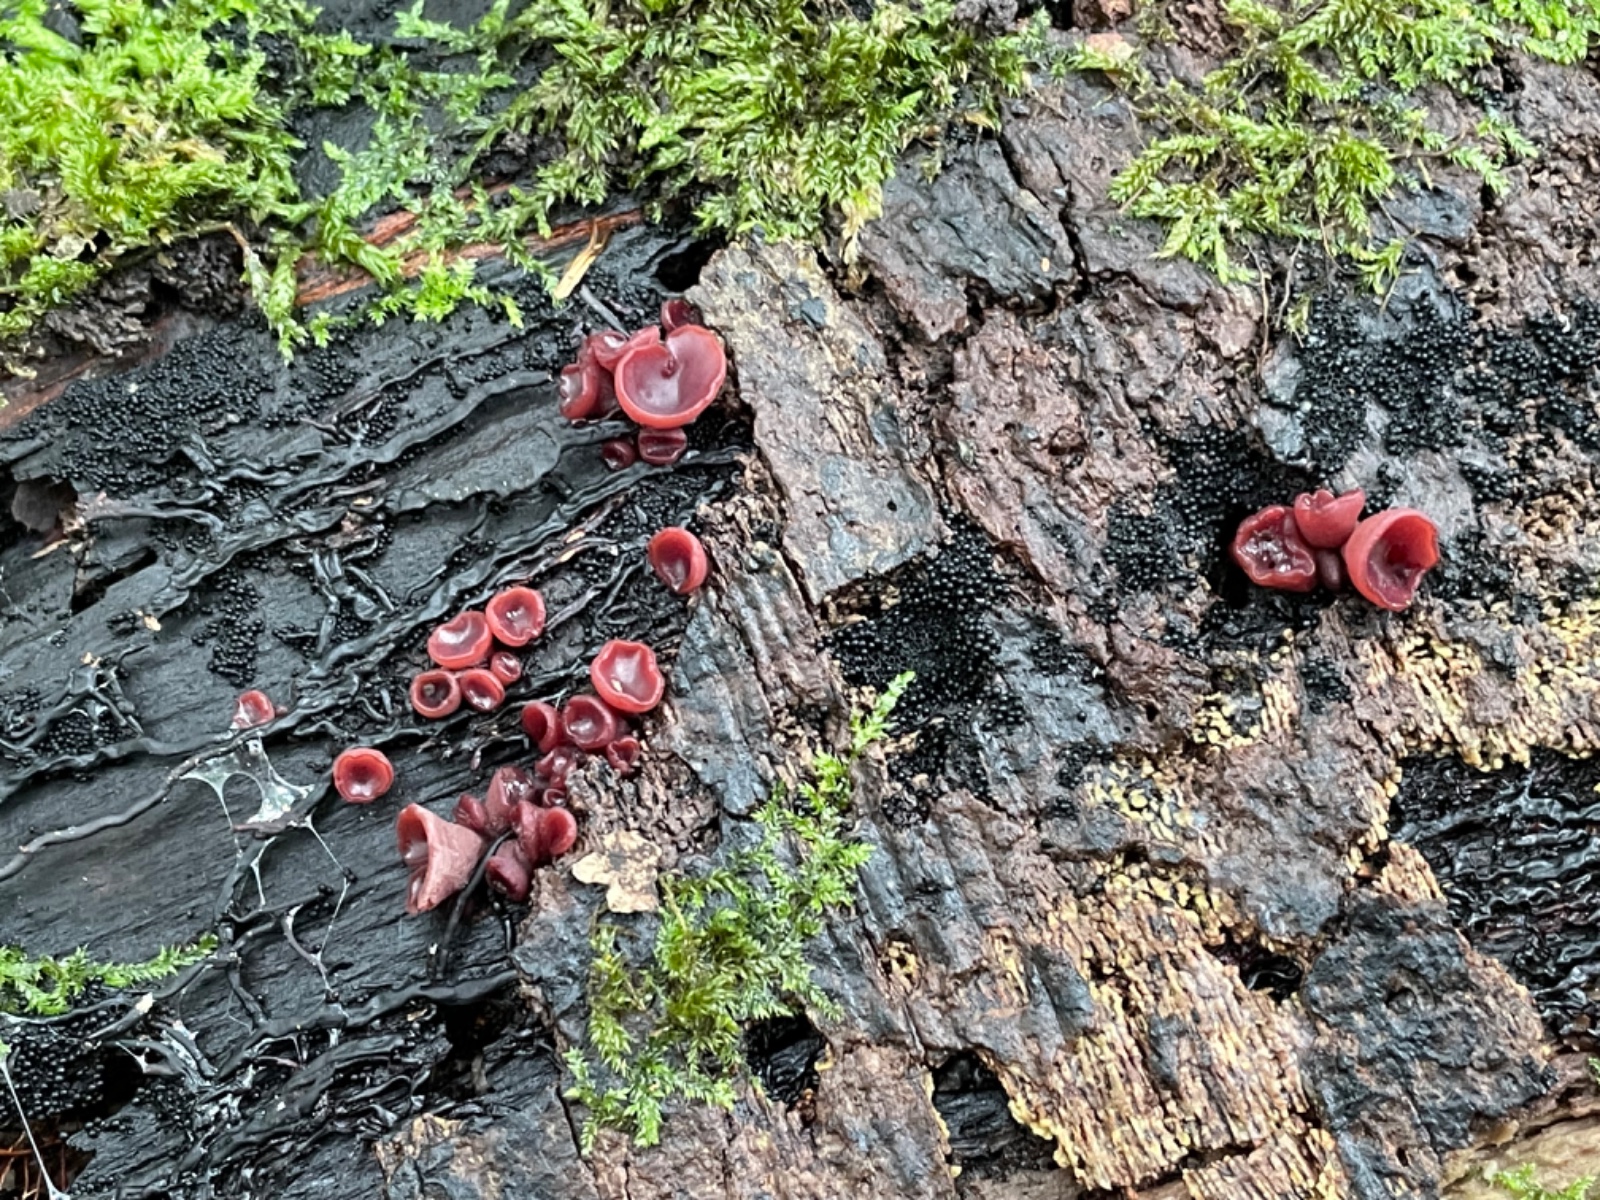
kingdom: Fungi
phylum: Ascomycota
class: Leotiomycetes
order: Helotiales
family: Gelatinodiscaceae
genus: Ascocoryne
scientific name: Ascocoryne cylichnium
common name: stor sejskive
